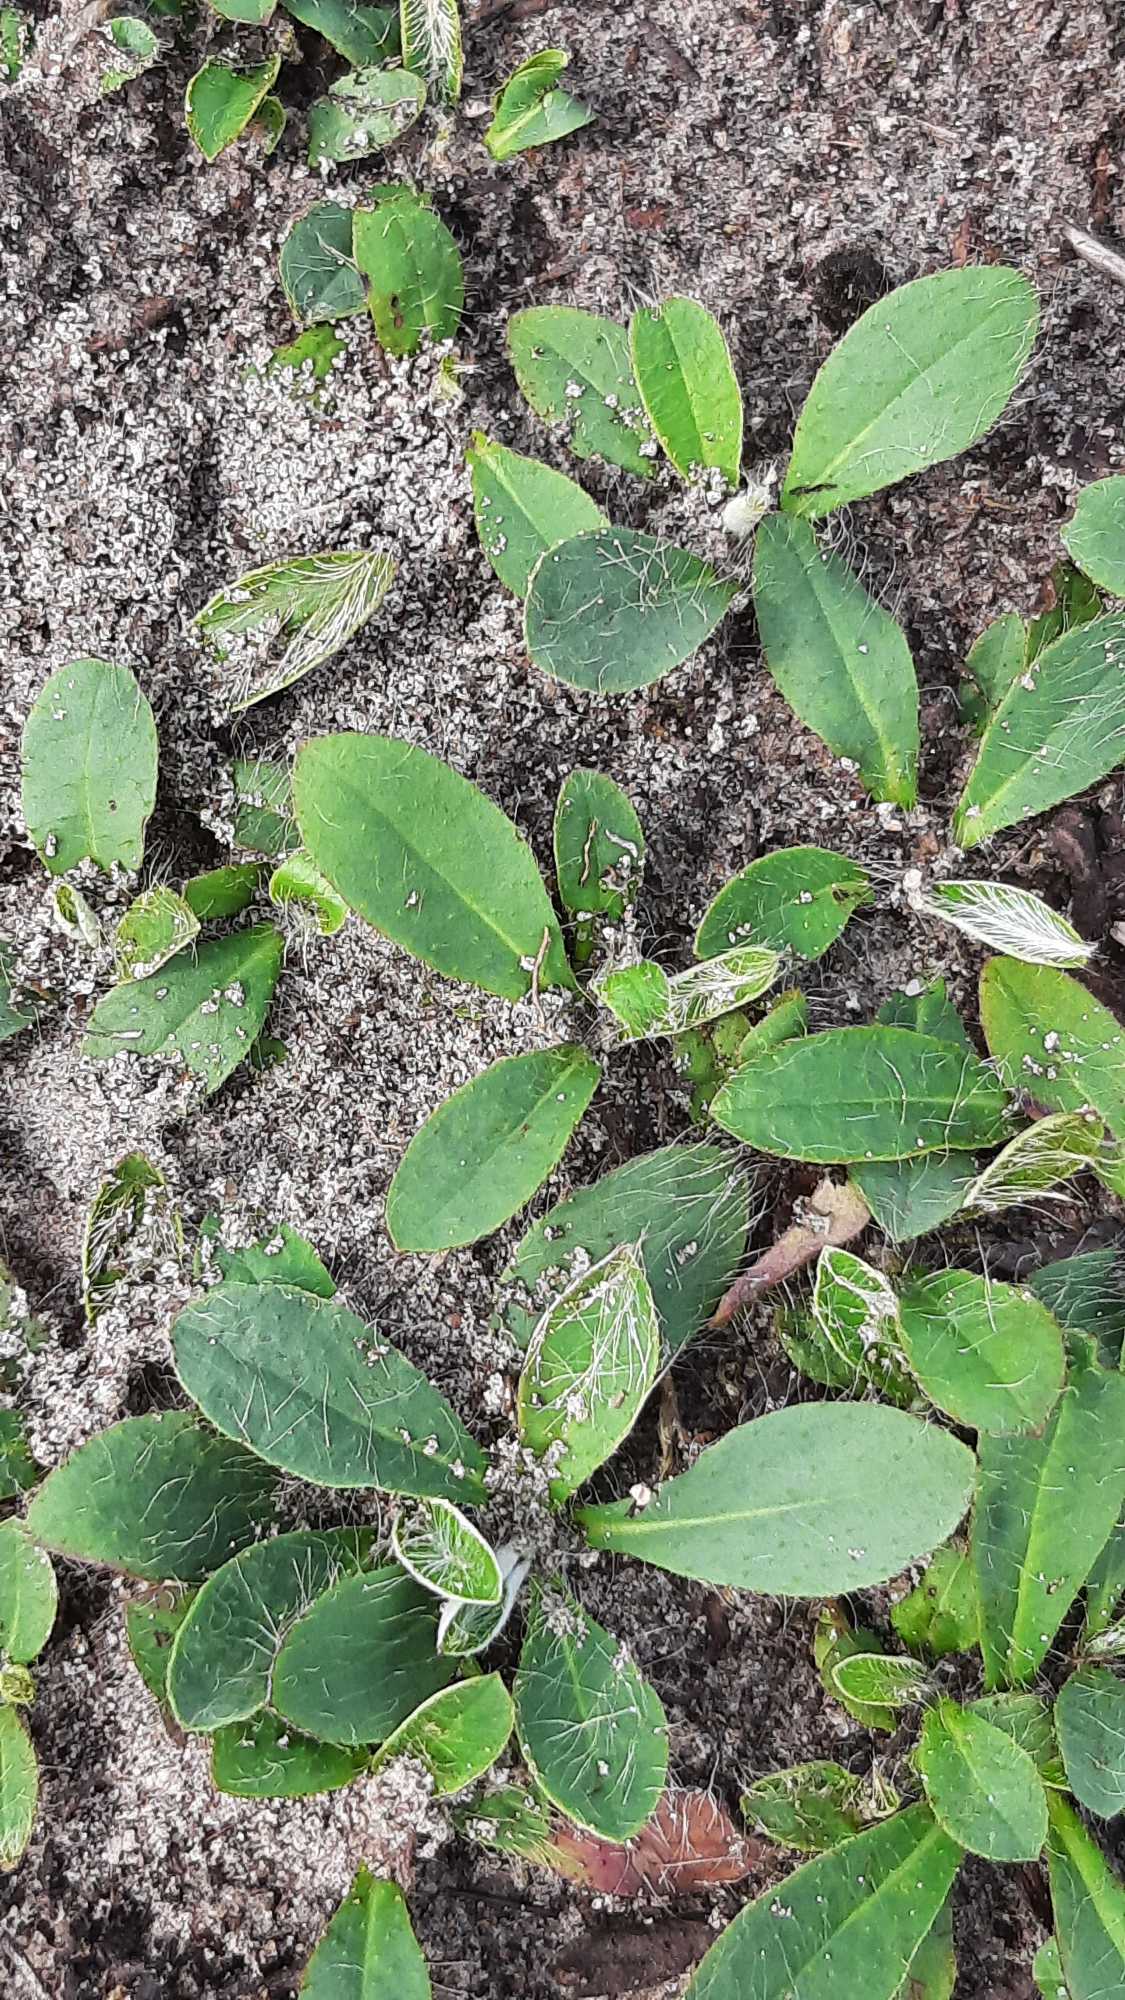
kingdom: Plantae
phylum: Tracheophyta
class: Magnoliopsida
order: Asterales
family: Asteraceae
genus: Pilosella
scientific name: Pilosella officinarum
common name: Håret høgeurt
